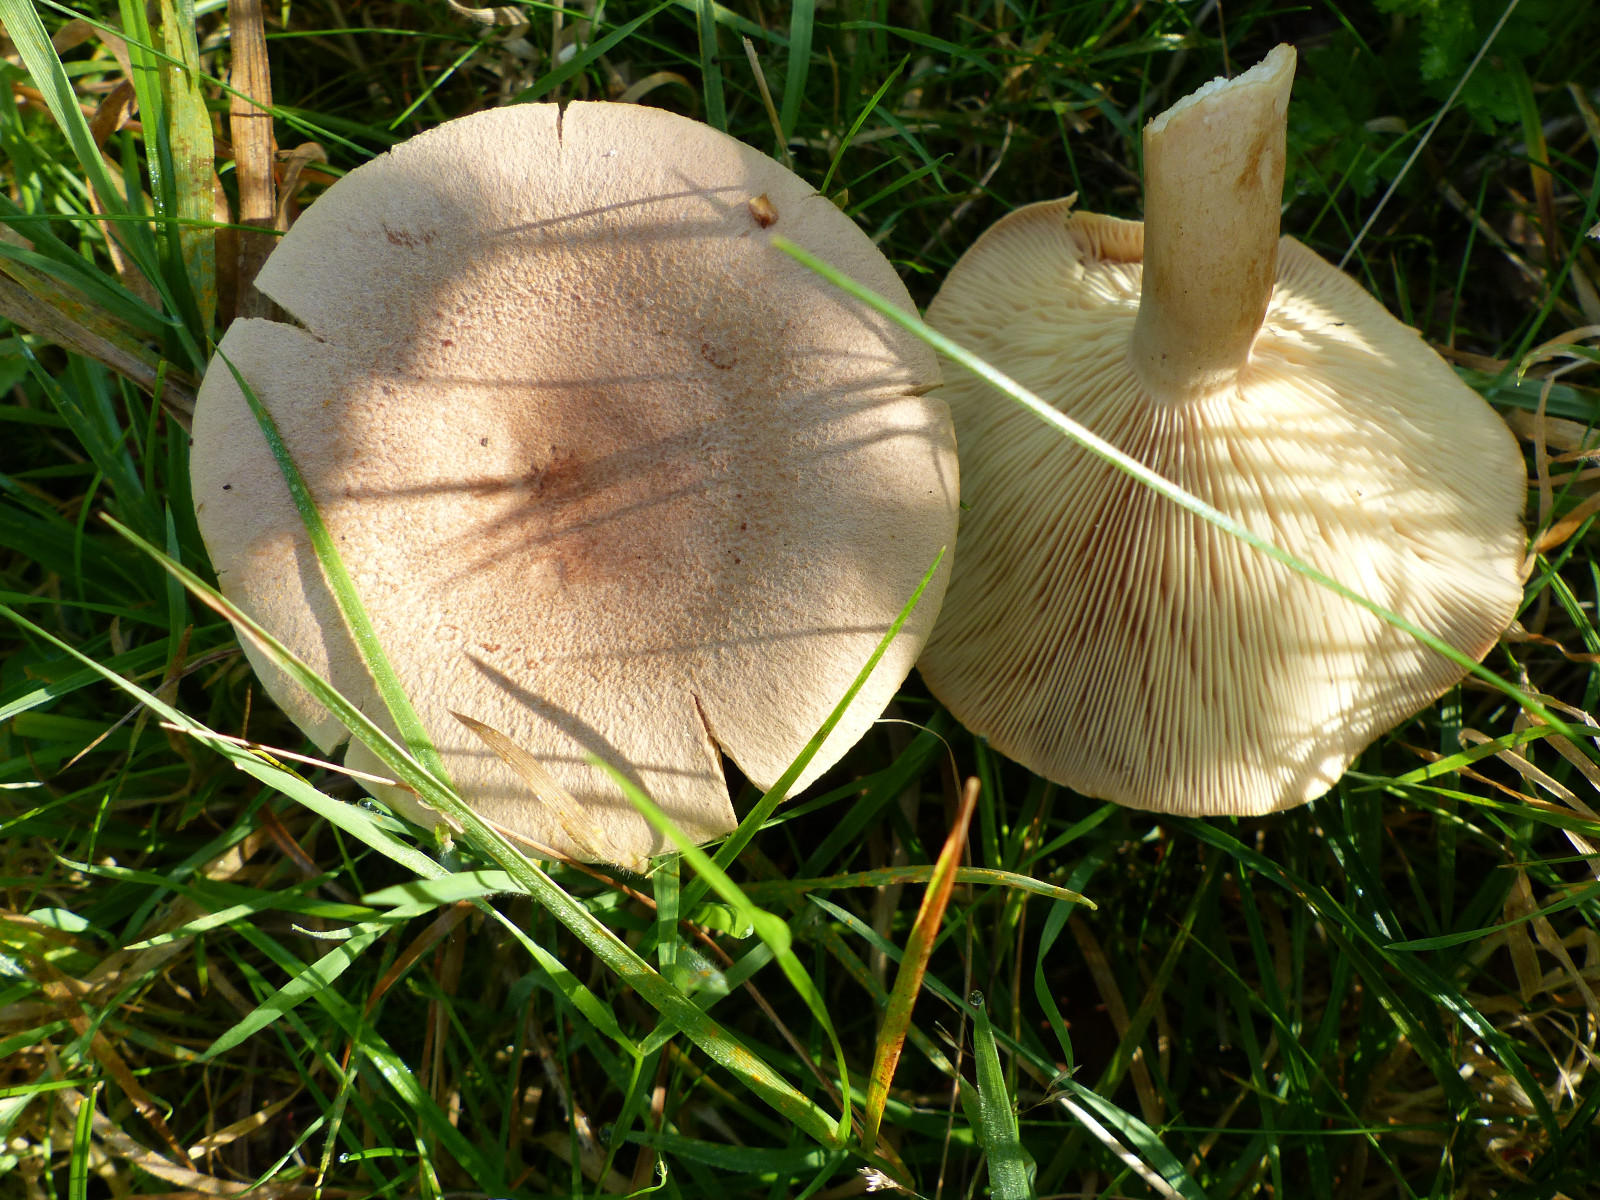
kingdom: Fungi
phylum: Basidiomycota
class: Agaricomycetes
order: Russulales
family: Russulaceae
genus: Lactarius
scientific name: Lactarius helvus
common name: mose-mælkehat
